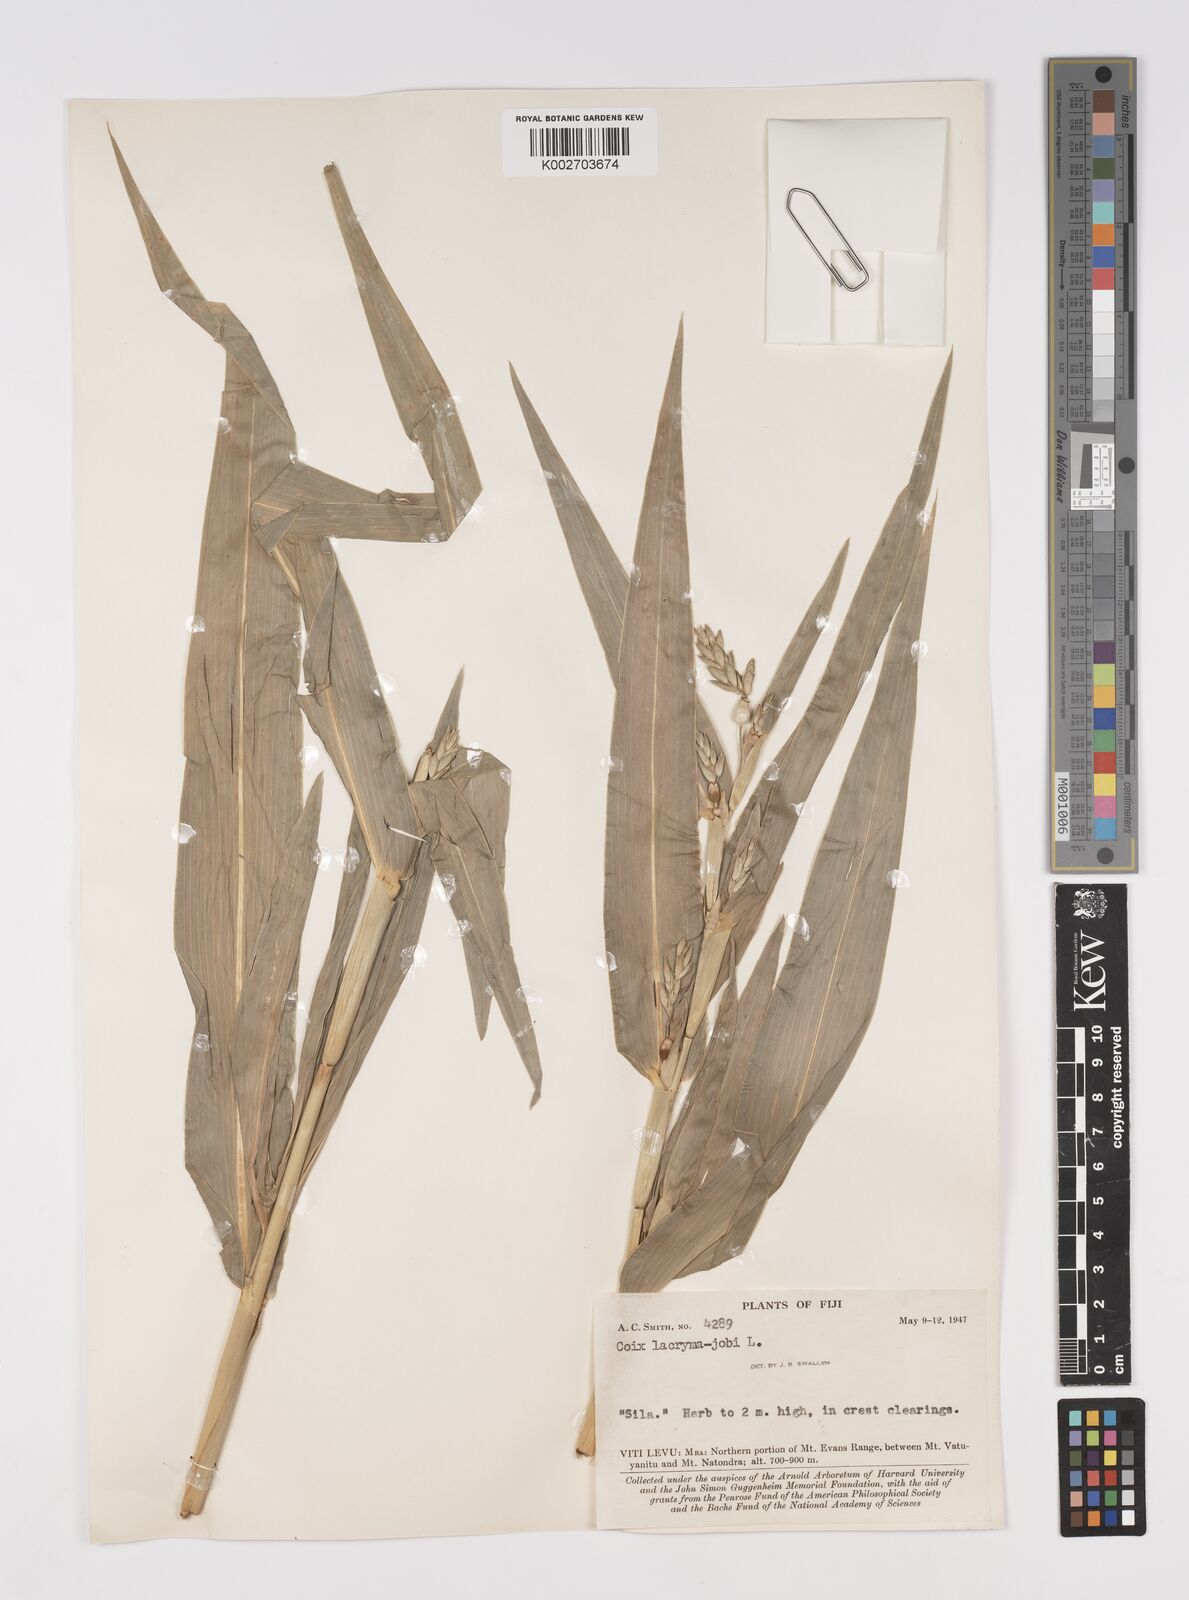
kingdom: Plantae
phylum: Tracheophyta
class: Liliopsida
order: Poales
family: Poaceae
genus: Coix
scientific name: Coix lacryma-jobi
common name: Job's tears
